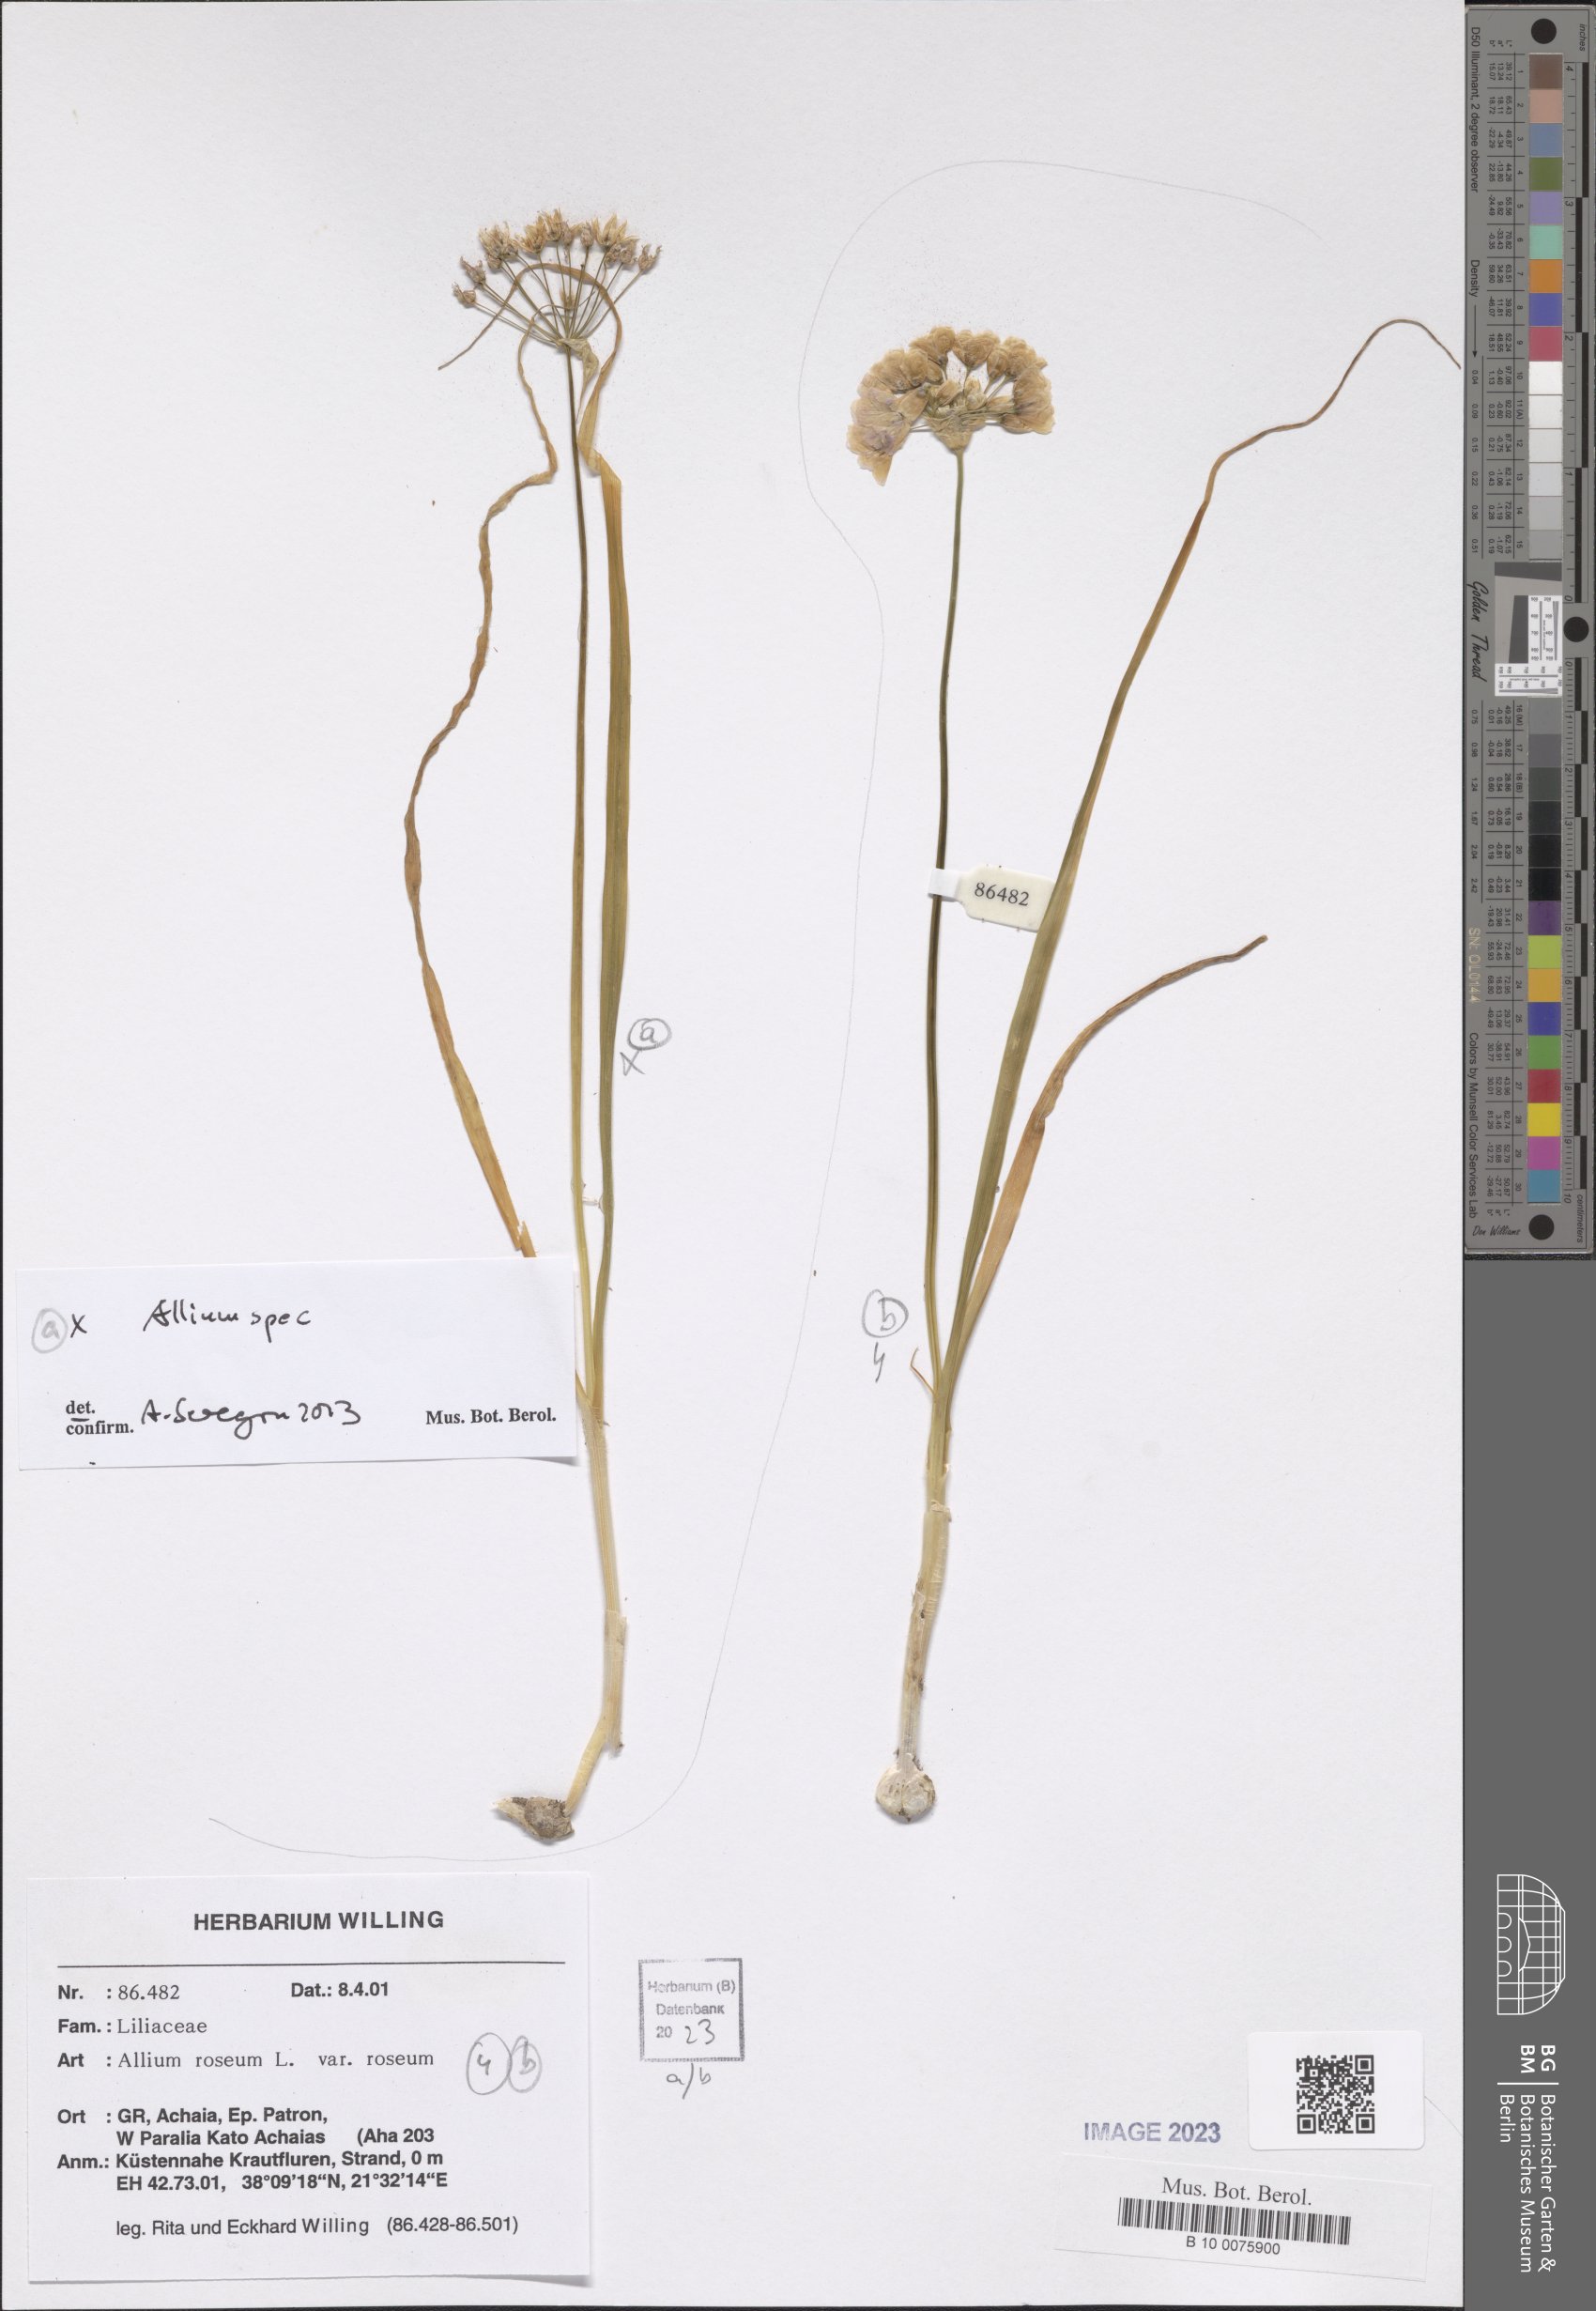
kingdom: Plantae
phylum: Tracheophyta
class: Liliopsida
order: Asparagales
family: Amaryllidaceae
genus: Allium
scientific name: Allium
